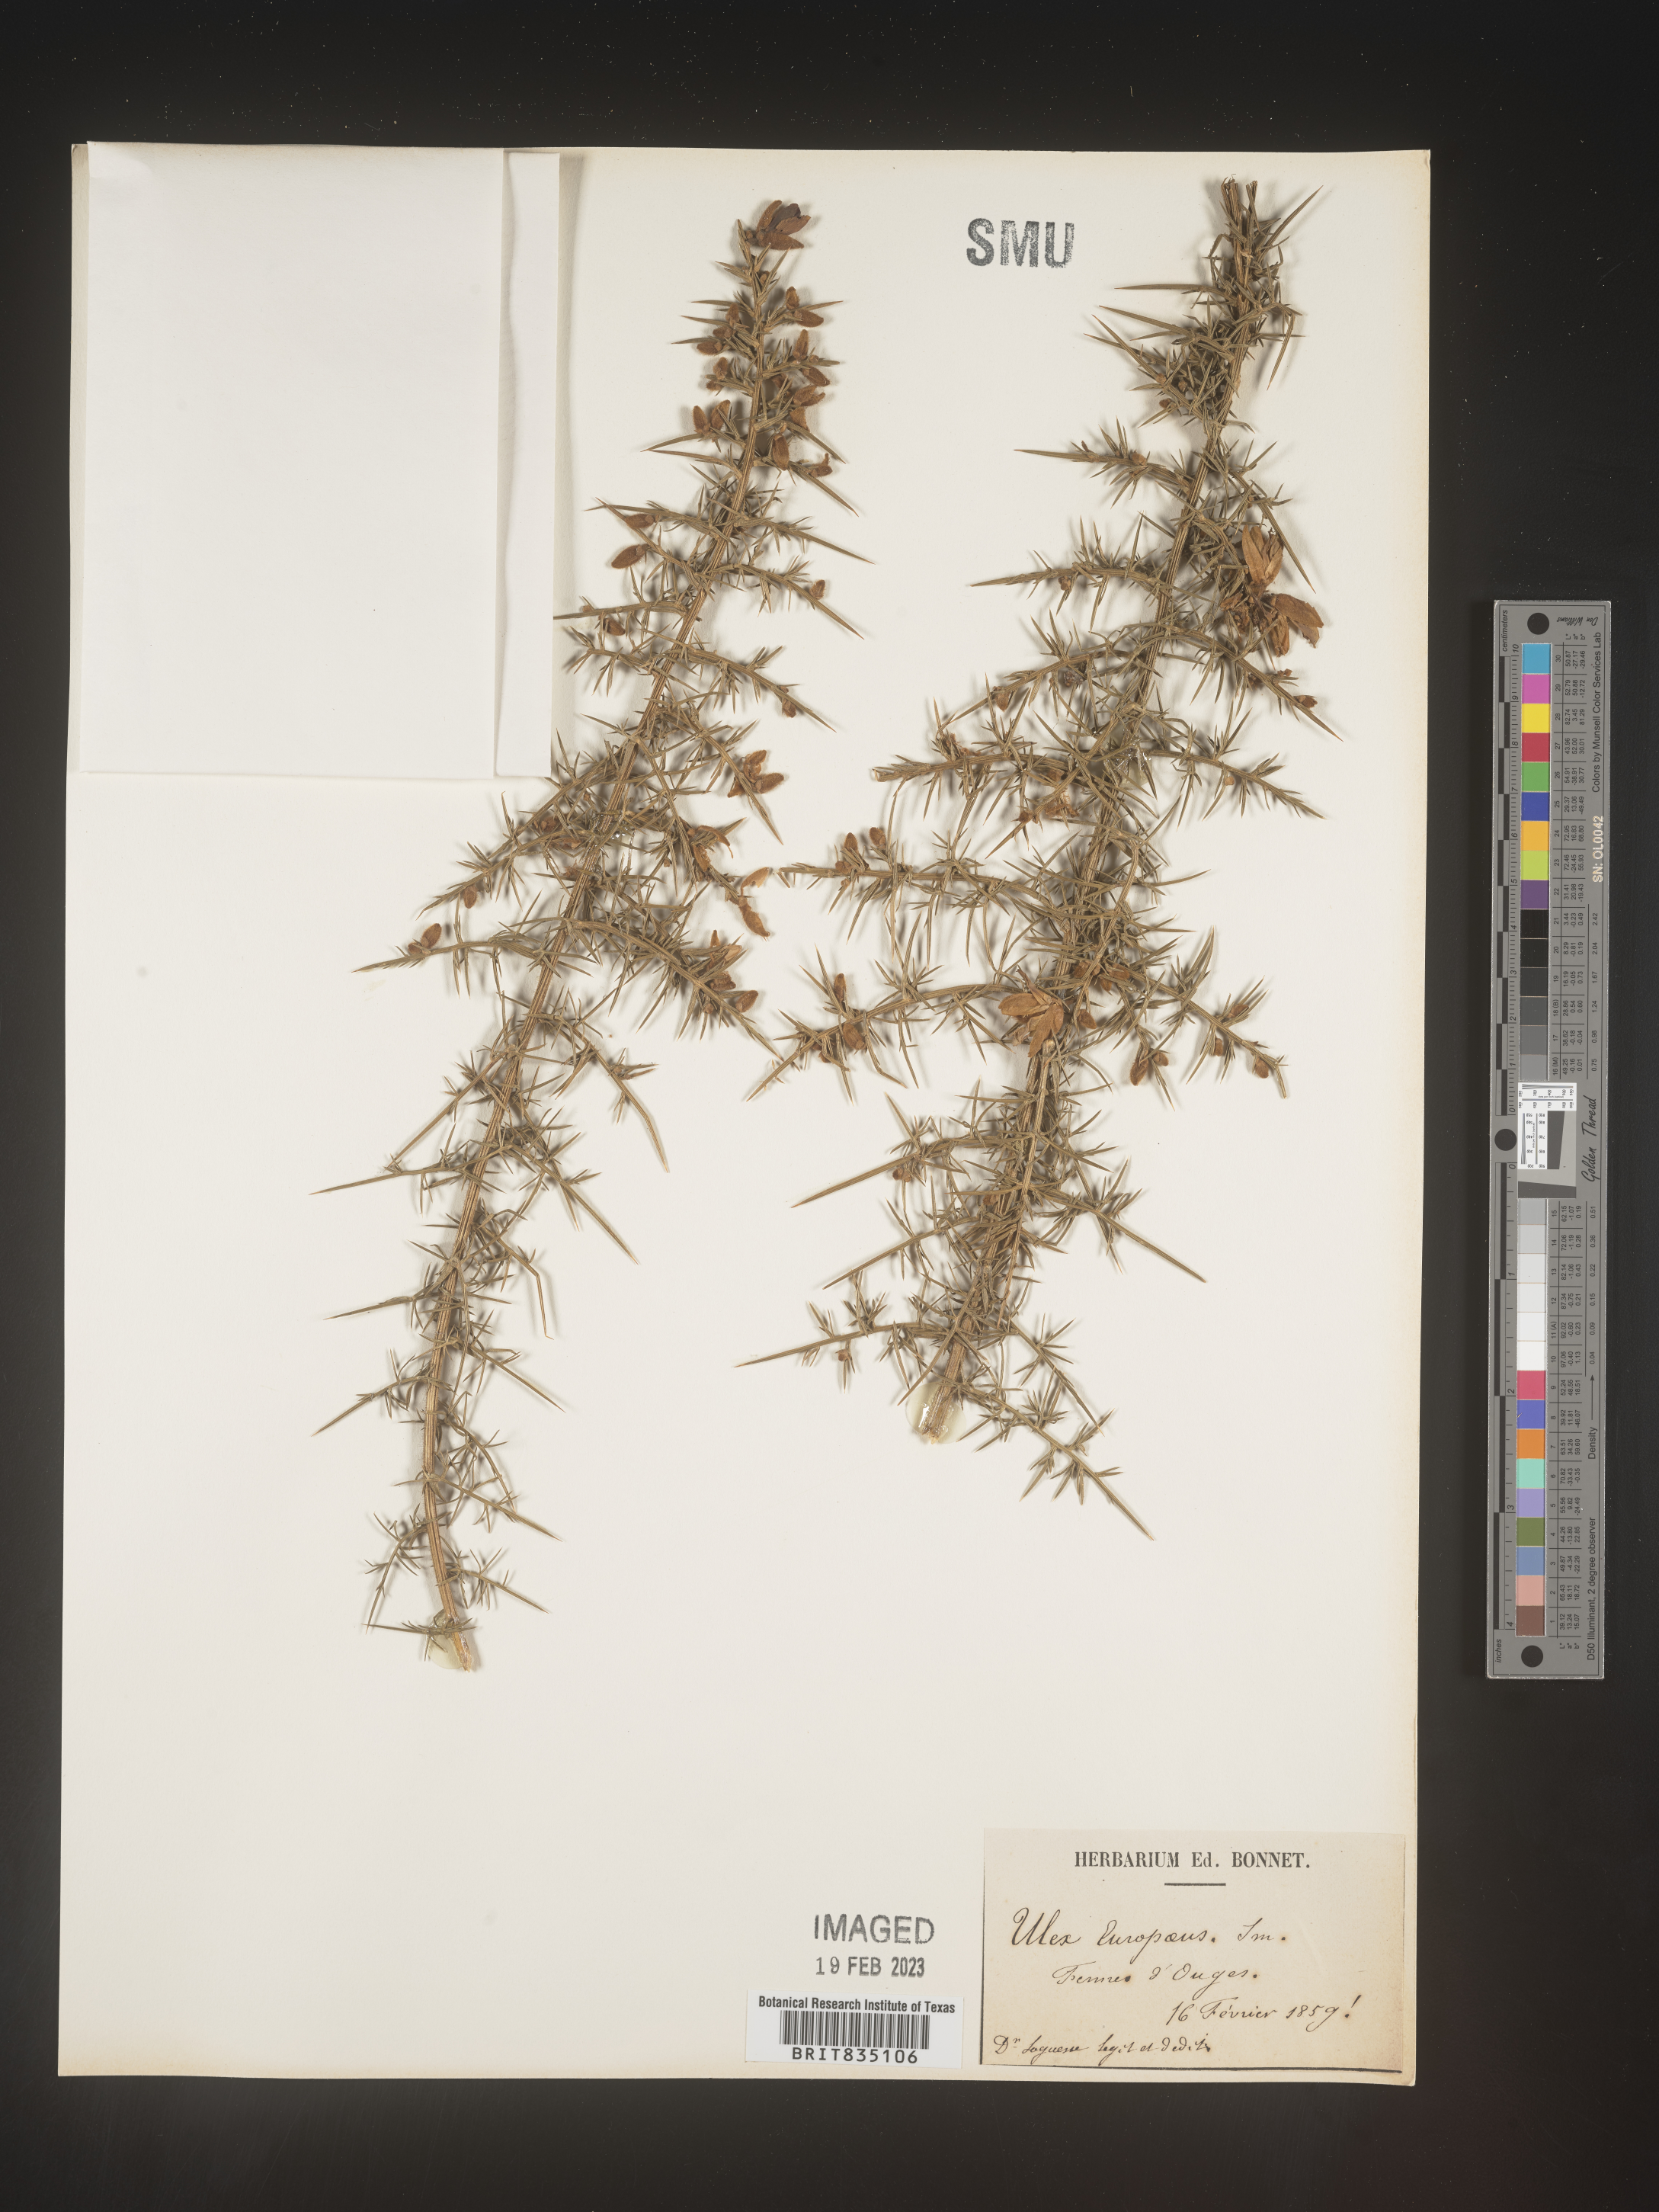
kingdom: Plantae
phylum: Tracheophyta
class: Magnoliopsida
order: Fabales
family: Fabaceae
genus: Ulex
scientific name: Ulex
